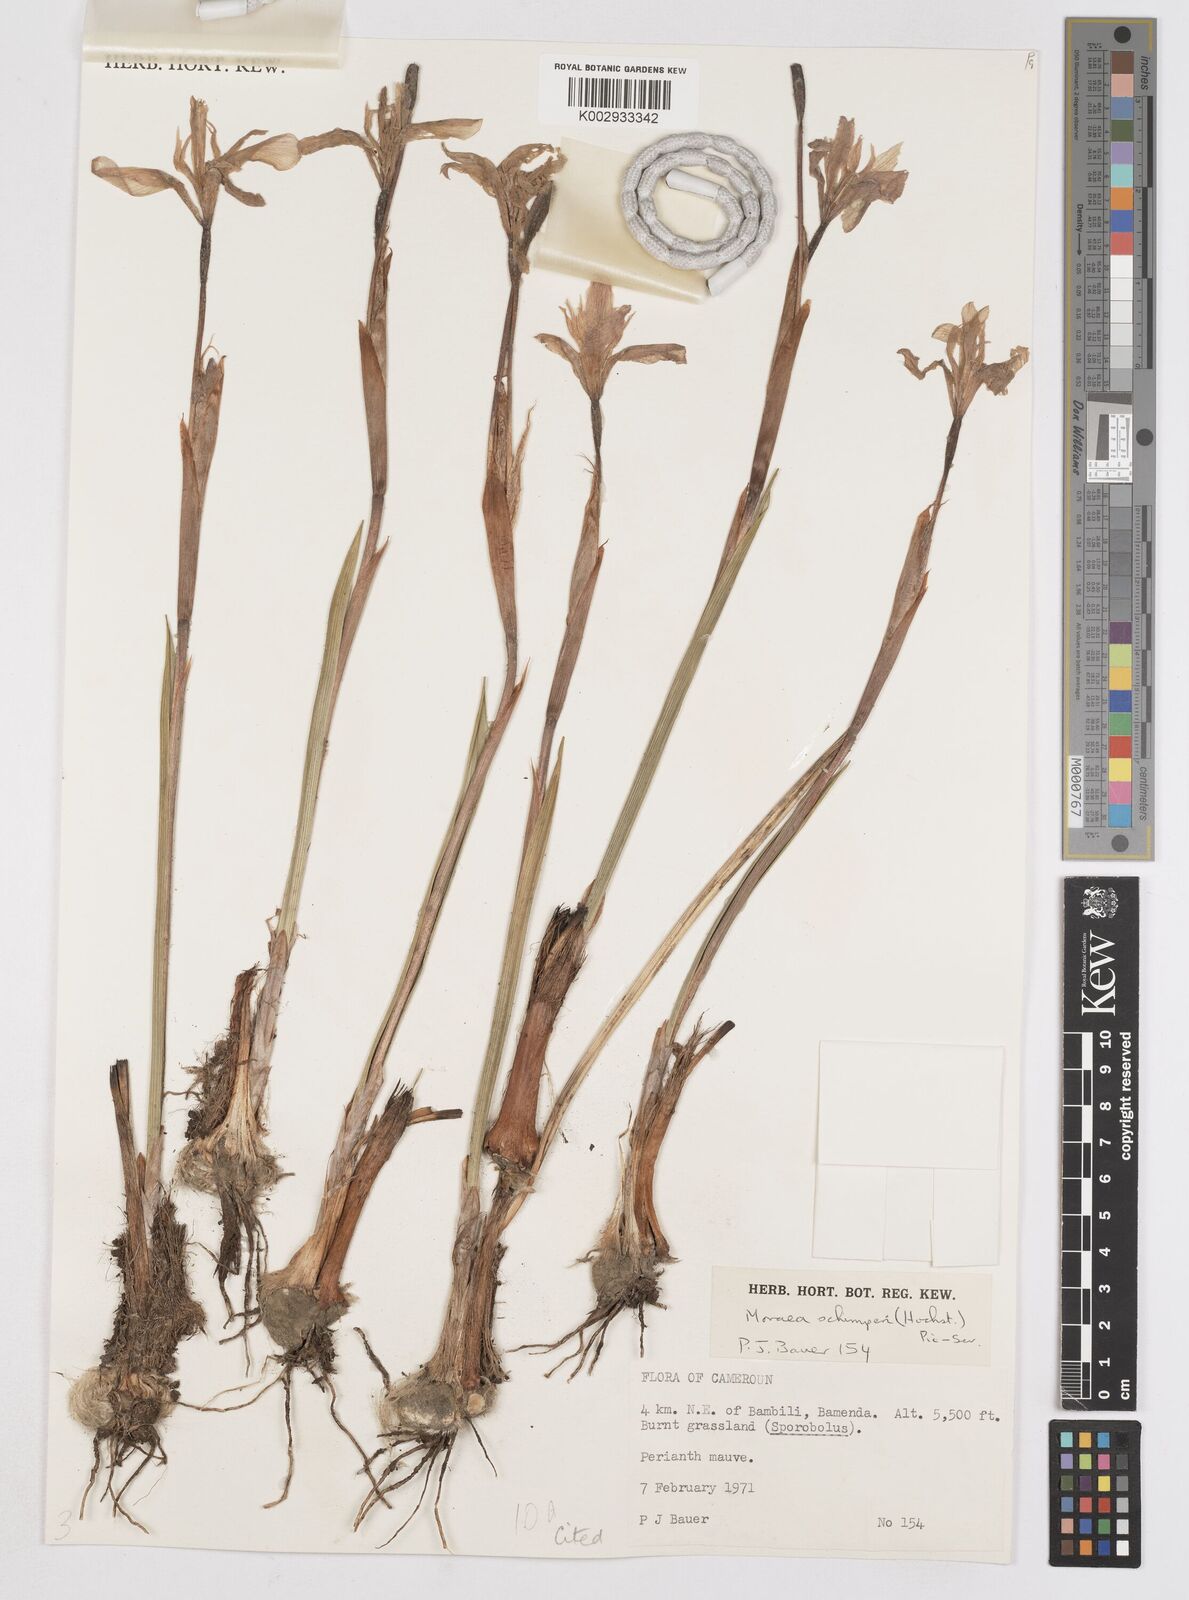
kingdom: Plantae
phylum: Tracheophyta
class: Liliopsida
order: Asparagales
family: Iridaceae
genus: Moraea
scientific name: Moraea schimperi
